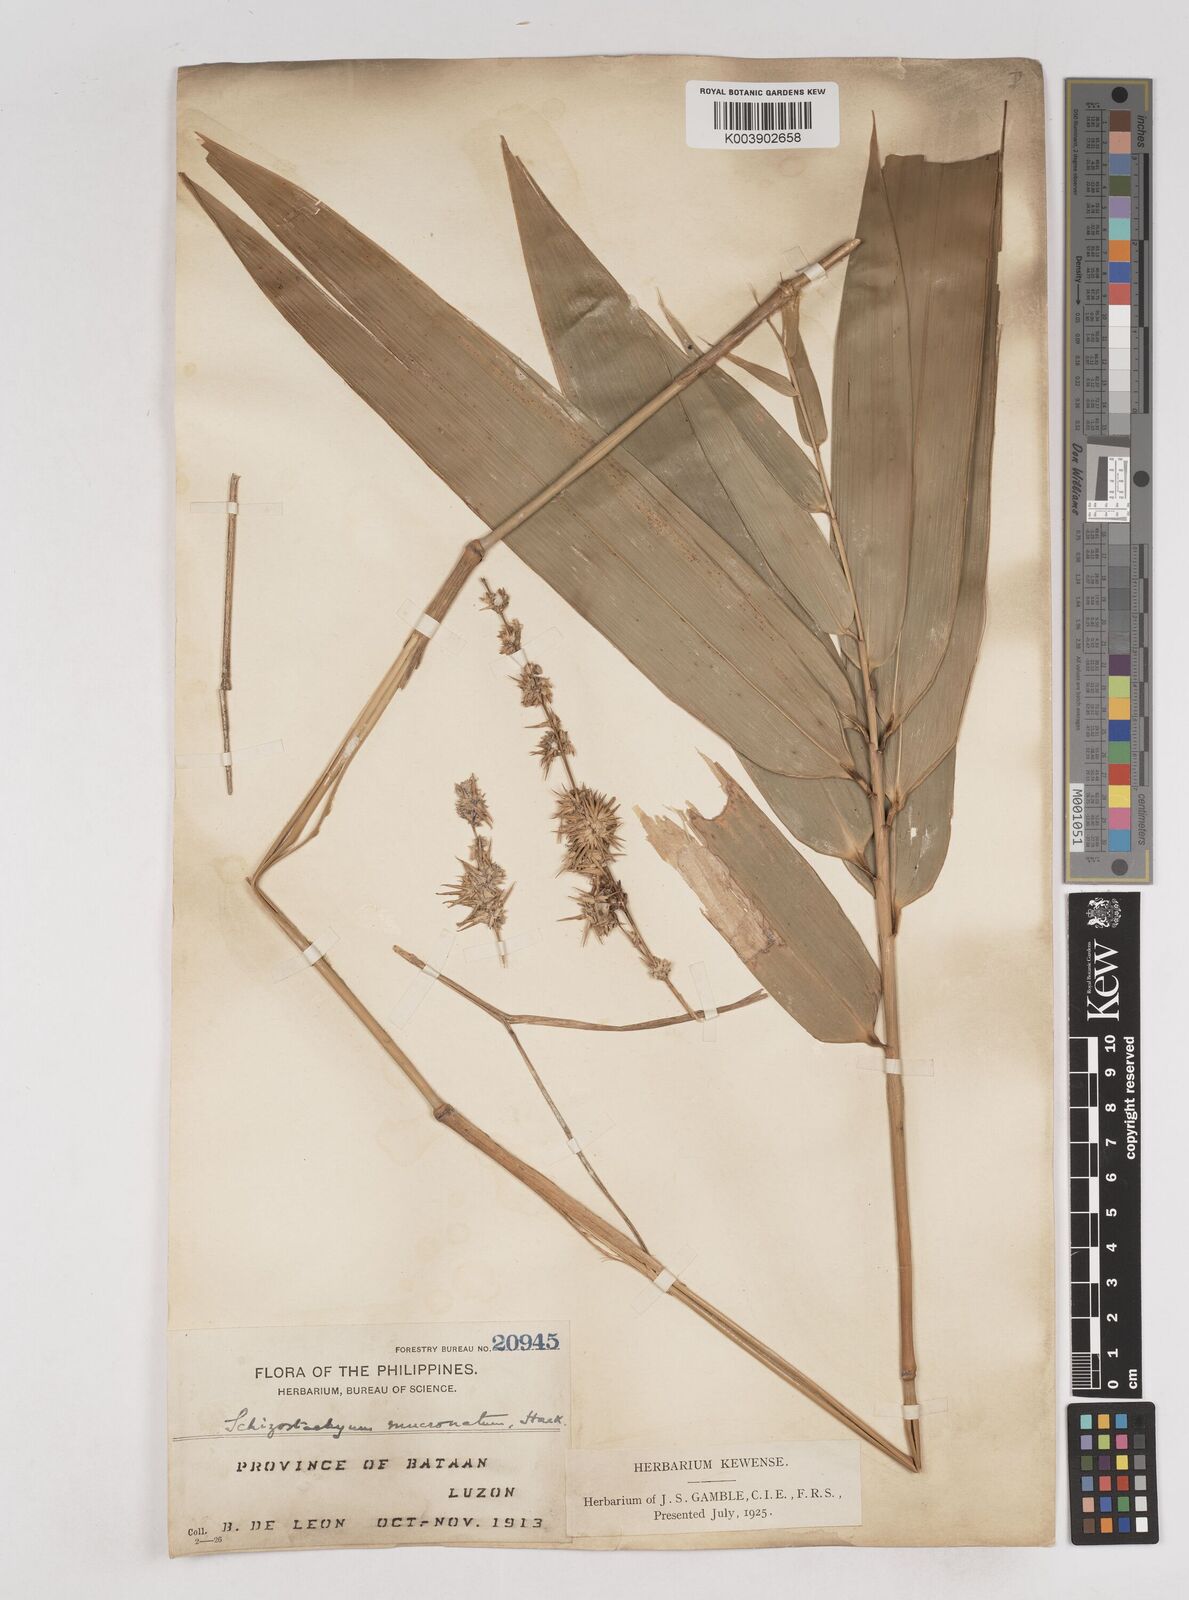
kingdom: Plantae
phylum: Tracheophyta
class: Liliopsida
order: Poales
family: Poaceae
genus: Schizostachyum
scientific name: Schizostachyum lumampao
